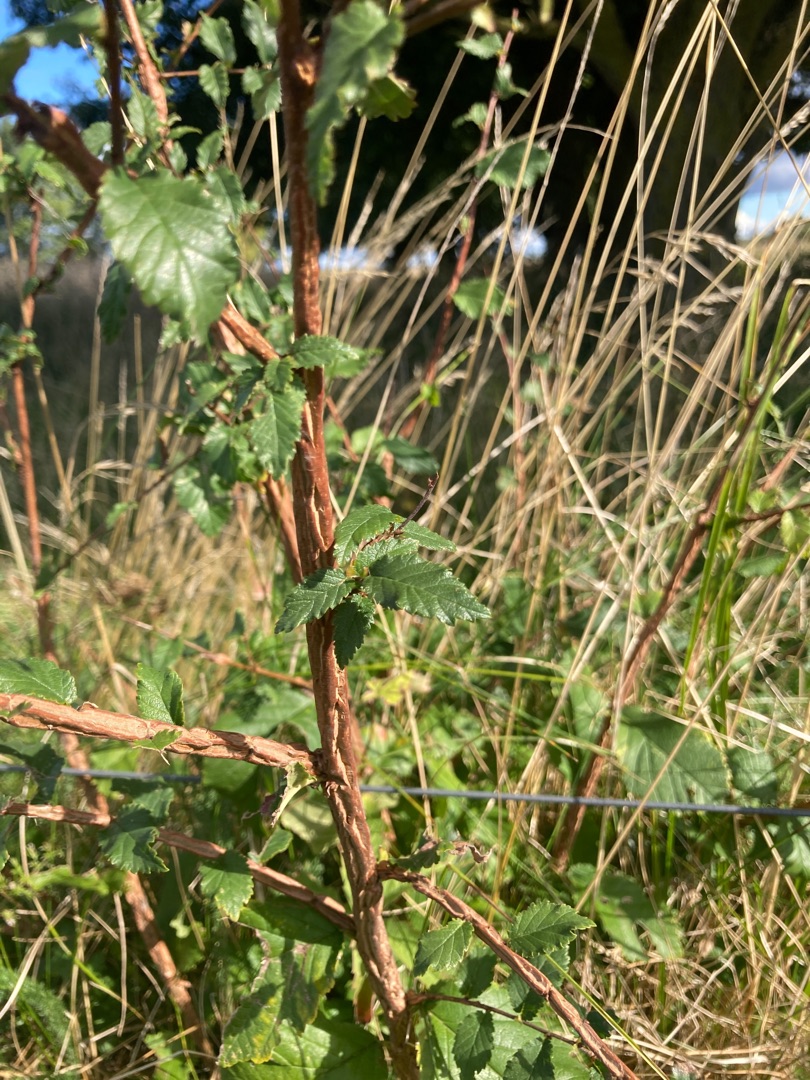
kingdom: Plantae
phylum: Tracheophyta
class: Magnoliopsida
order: Rosales
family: Ulmaceae
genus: Ulmus
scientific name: Ulmus minor
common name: Småbladet elm
